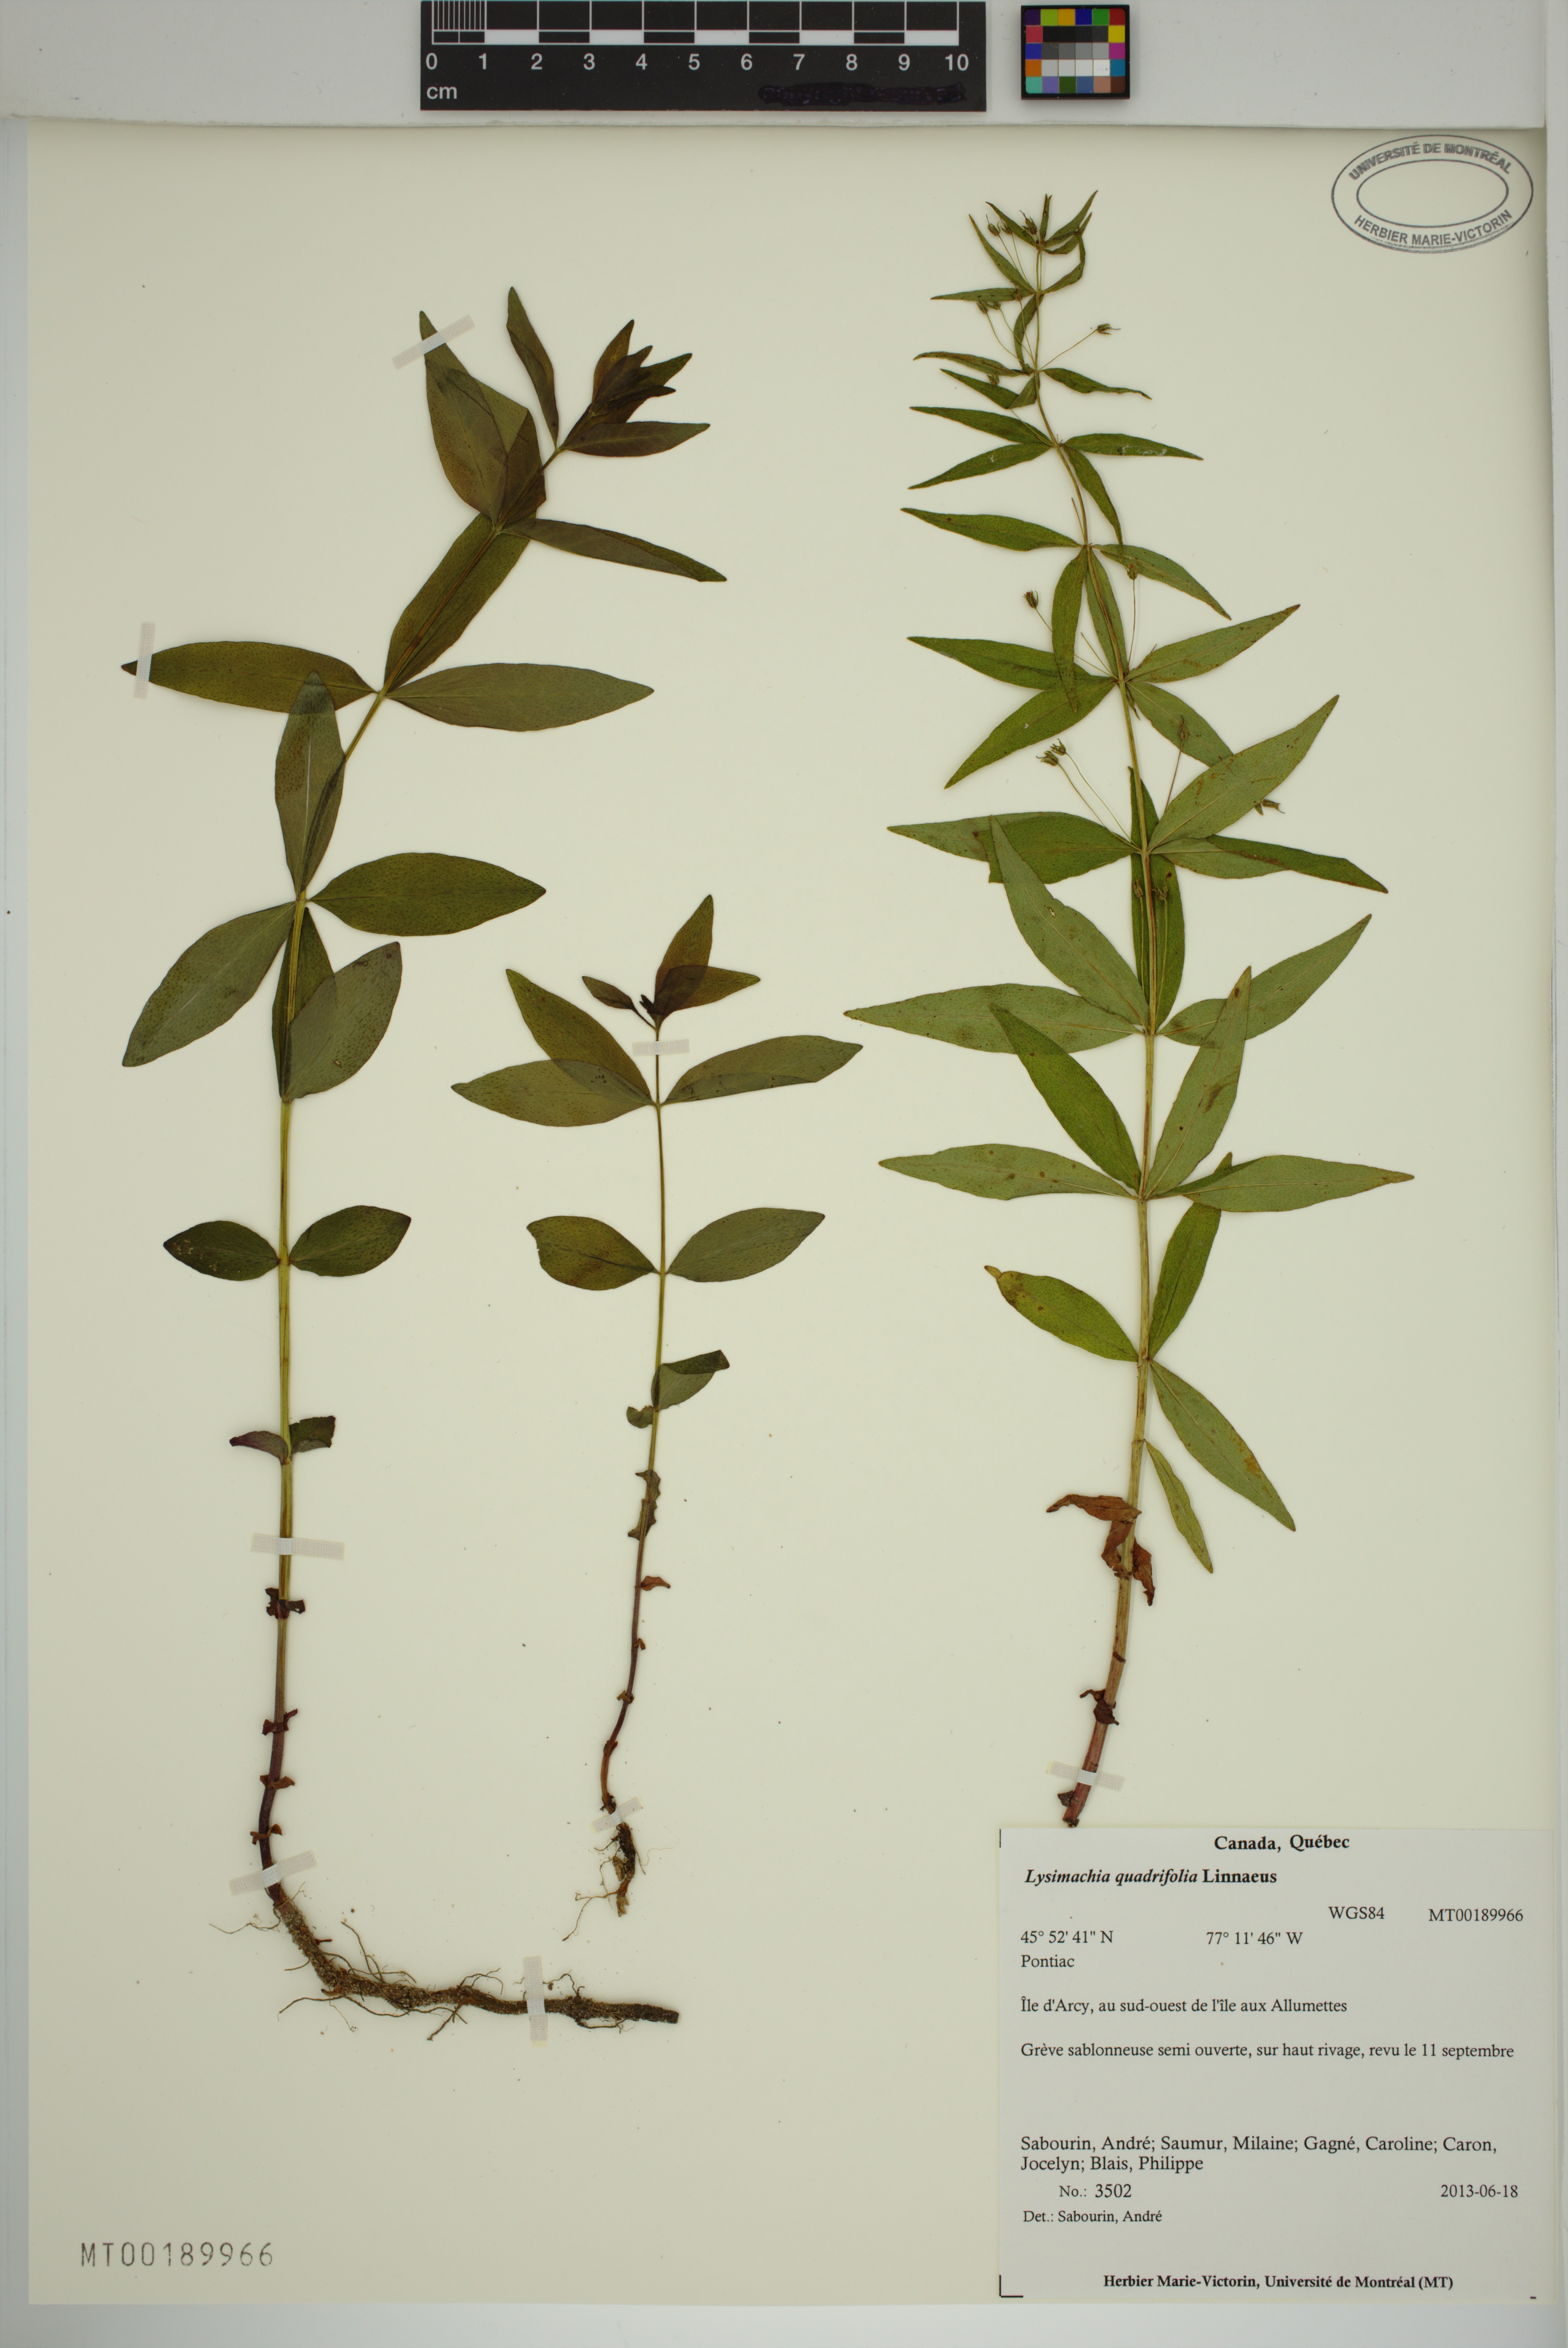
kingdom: Plantae
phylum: Tracheophyta
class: Magnoliopsida
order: Ericales
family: Primulaceae
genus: Lysimachia
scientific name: Lysimachia quadrifolia
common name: Whorled loosestrife
